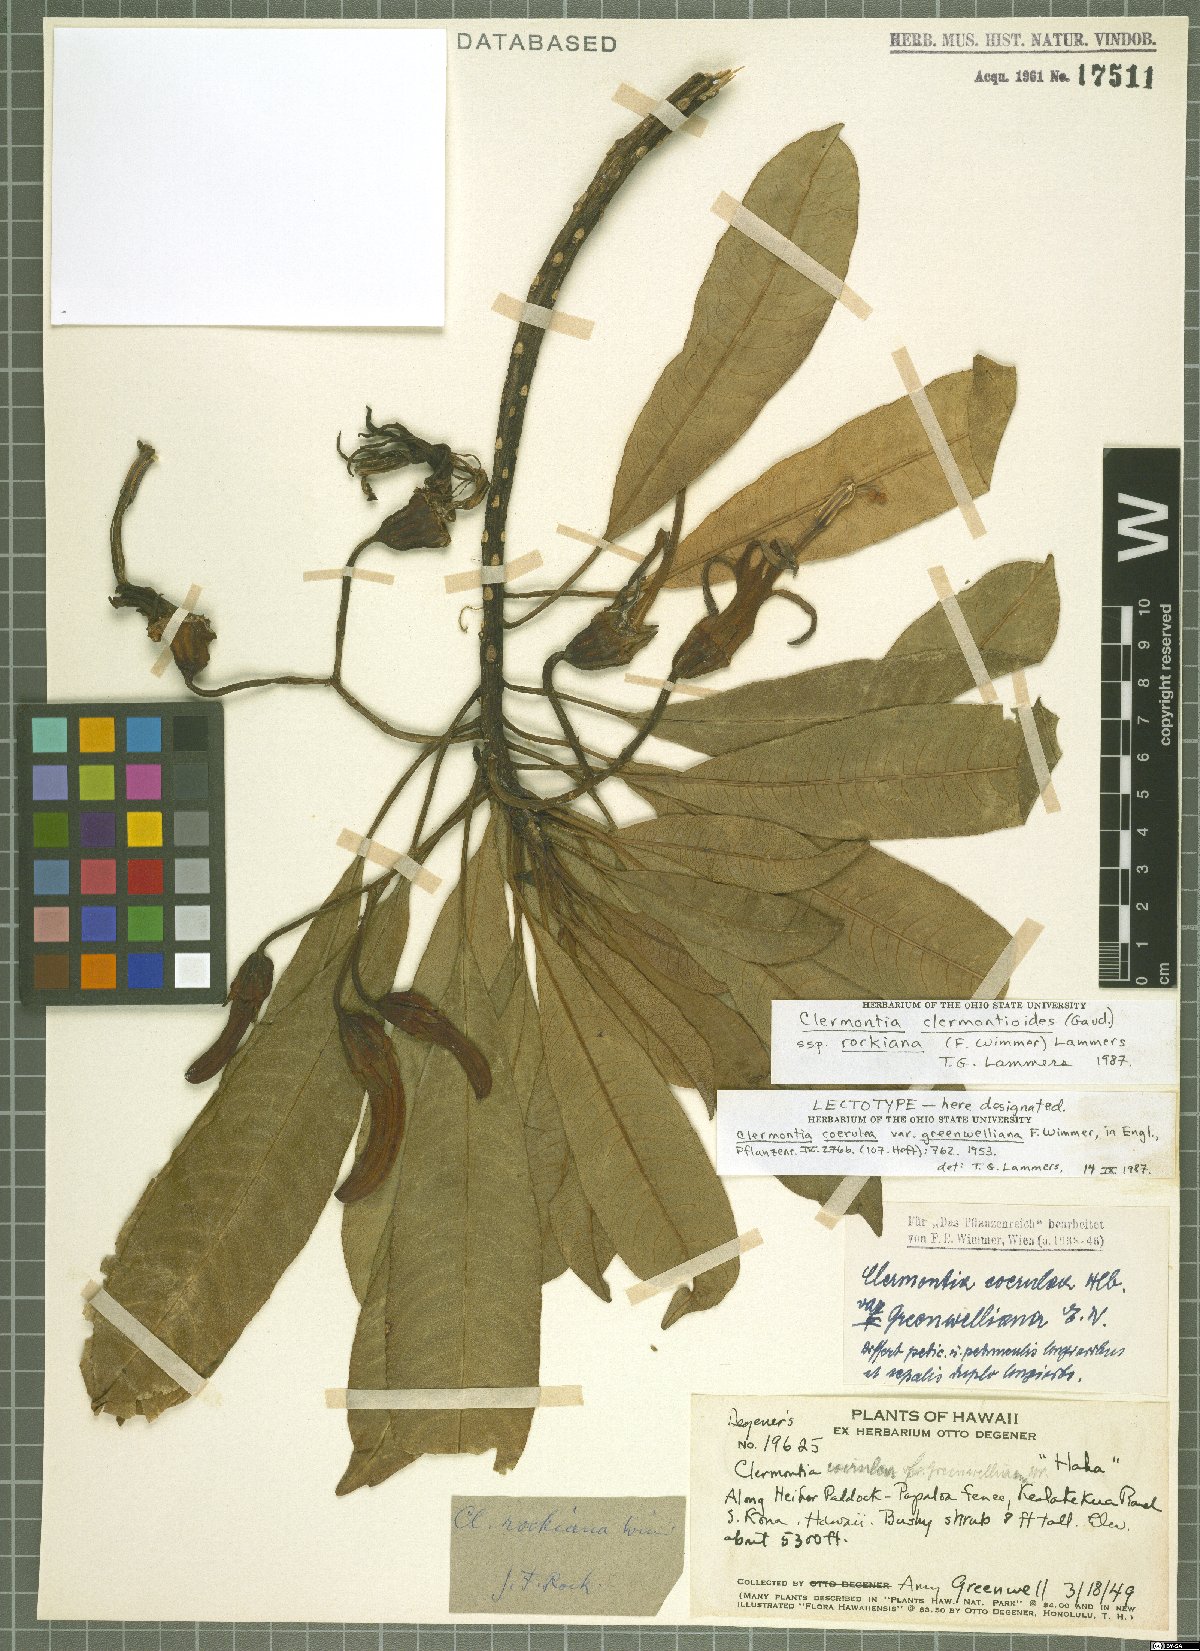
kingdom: Plantae
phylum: Tracheophyta
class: Magnoliopsida
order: Asterales
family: Campanulaceae
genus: Clermontia
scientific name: Clermontia clermontioides
